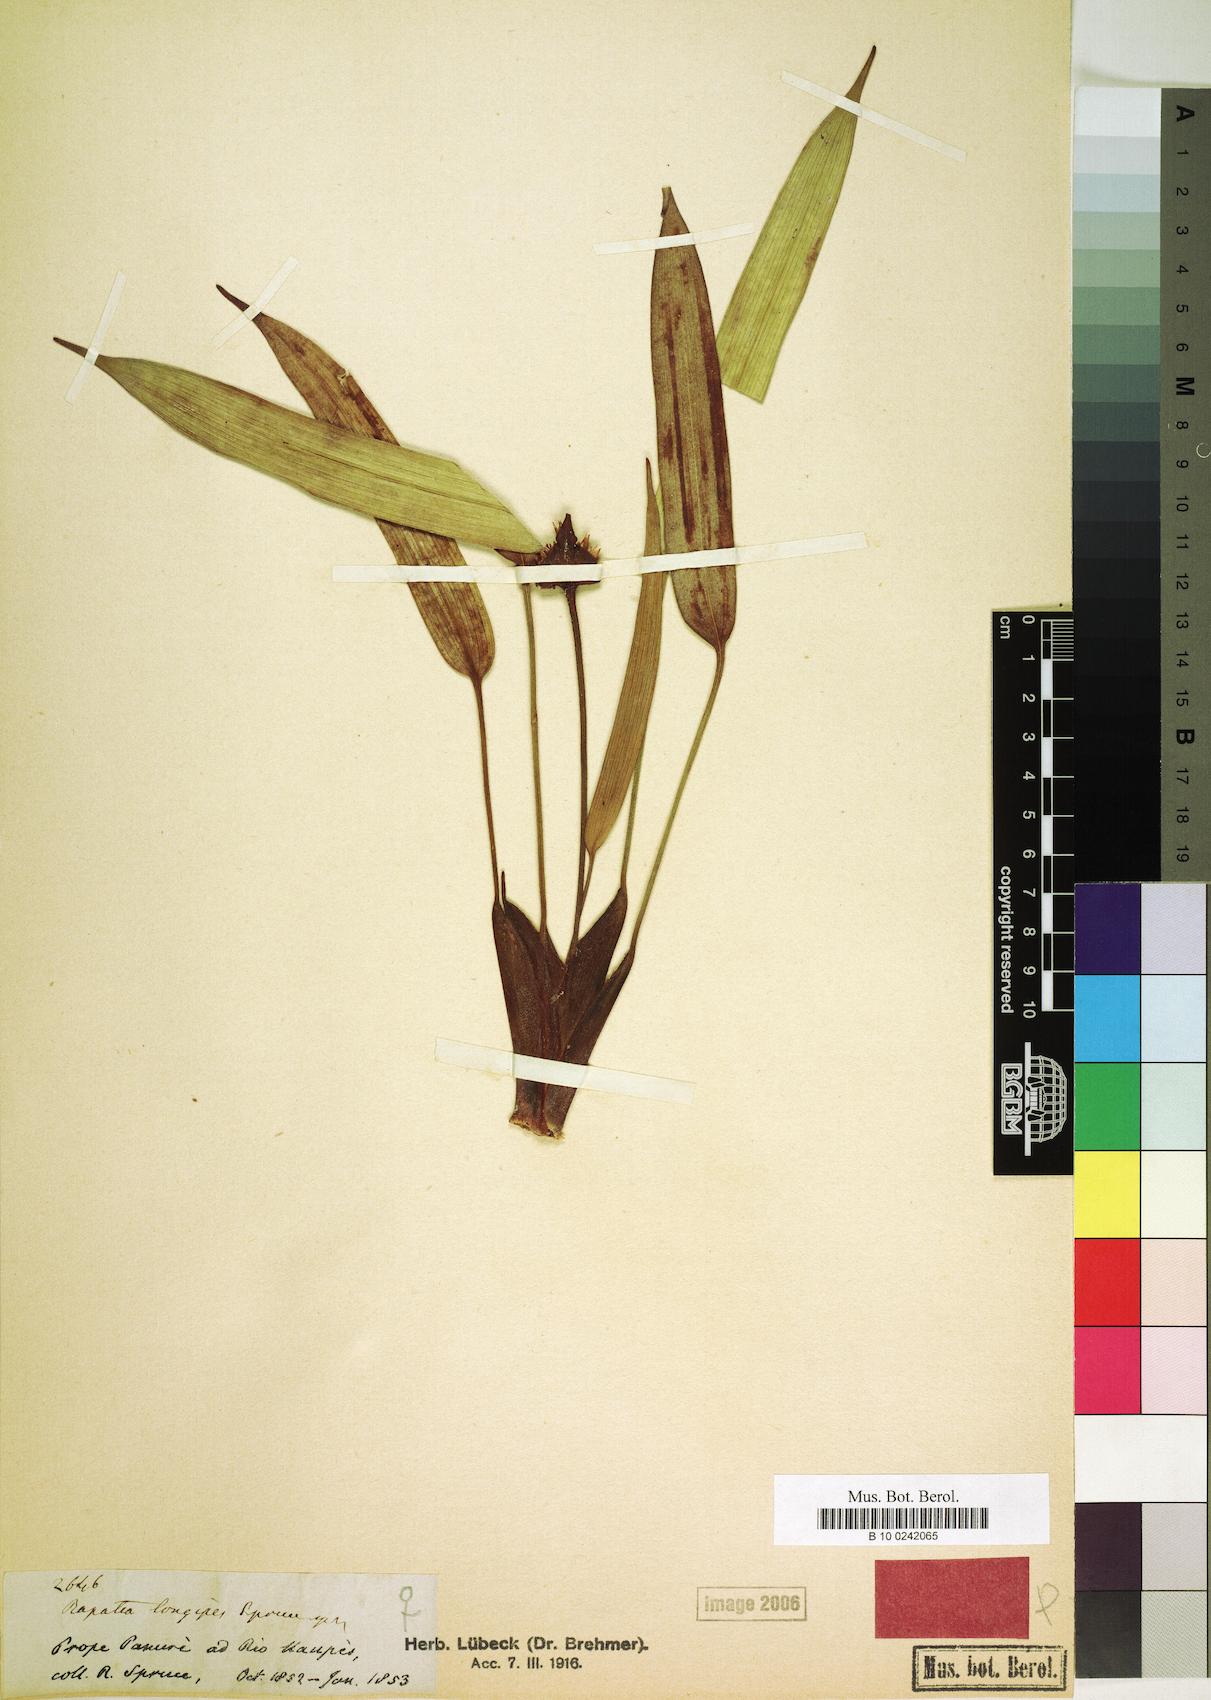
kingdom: Plantae
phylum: Tracheophyta
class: Liliopsida
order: Poales
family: Rapateaceae
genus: Rapatea
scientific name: Rapatea longipes
